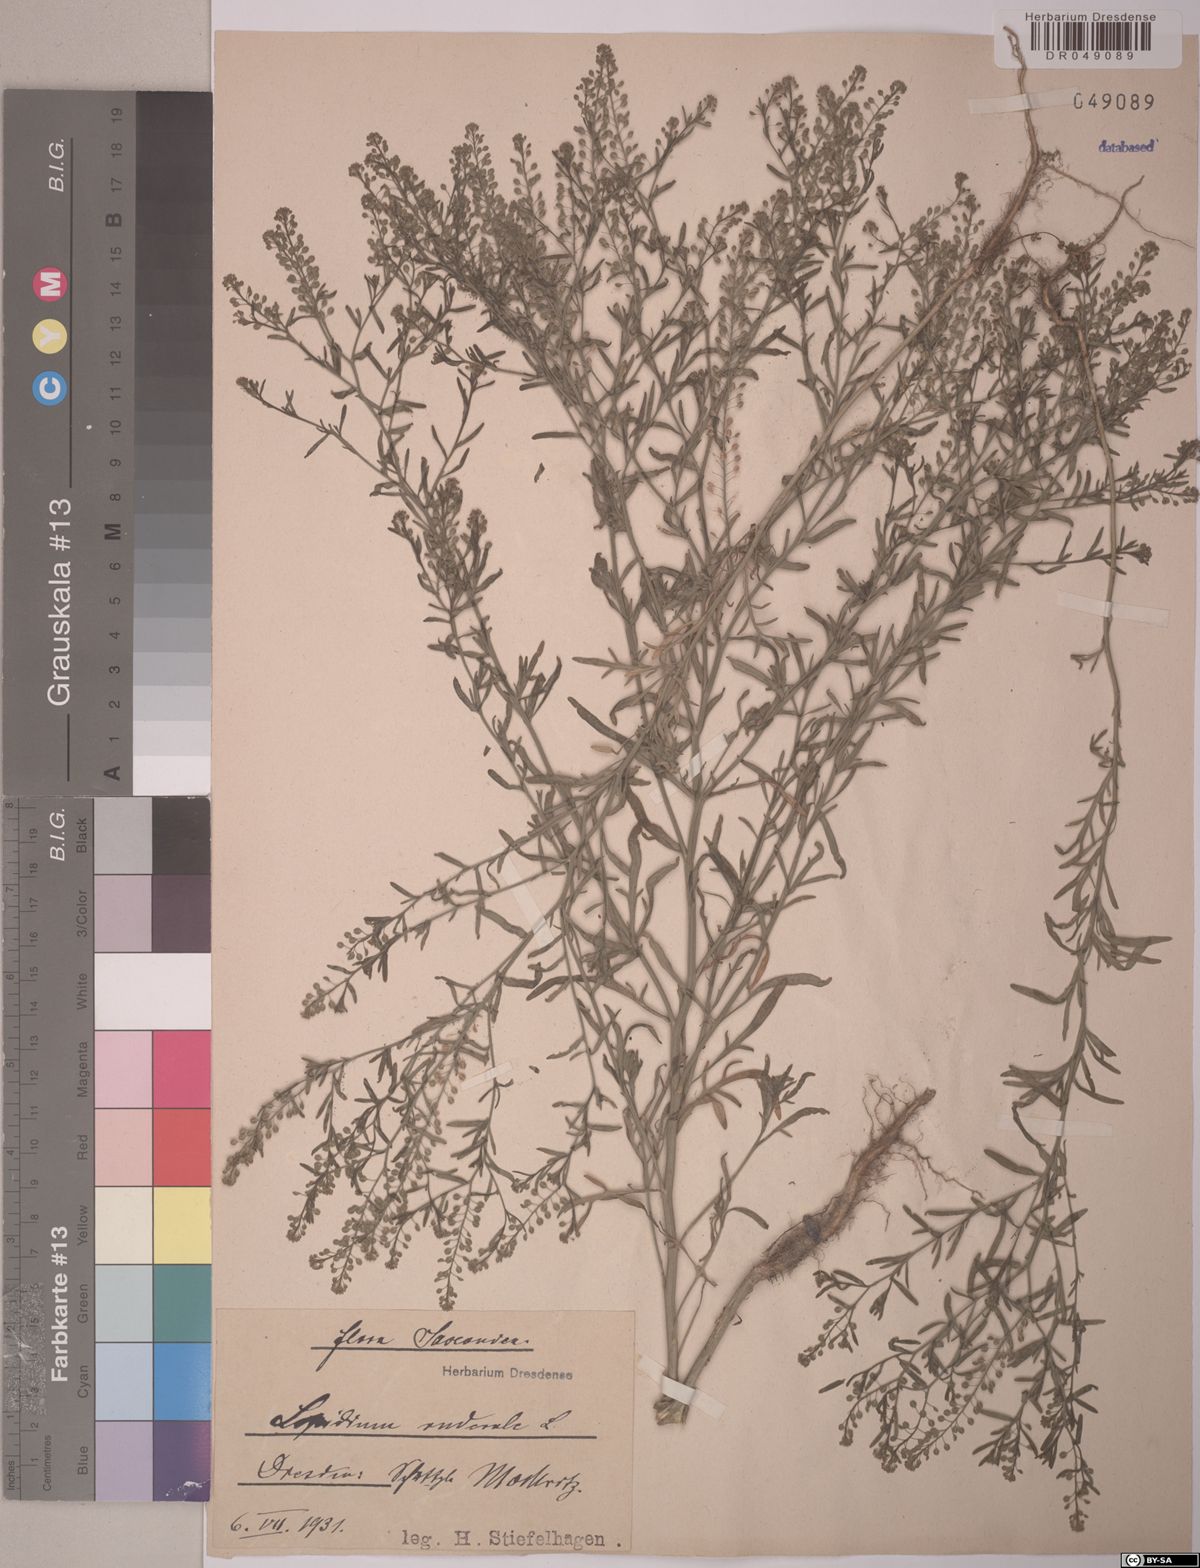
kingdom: Plantae
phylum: Tracheophyta
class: Magnoliopsida
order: Brassicales
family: Brassicaceae
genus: Lepidium
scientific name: Lepidium ruderale
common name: Narrow-leaved pepperwort
